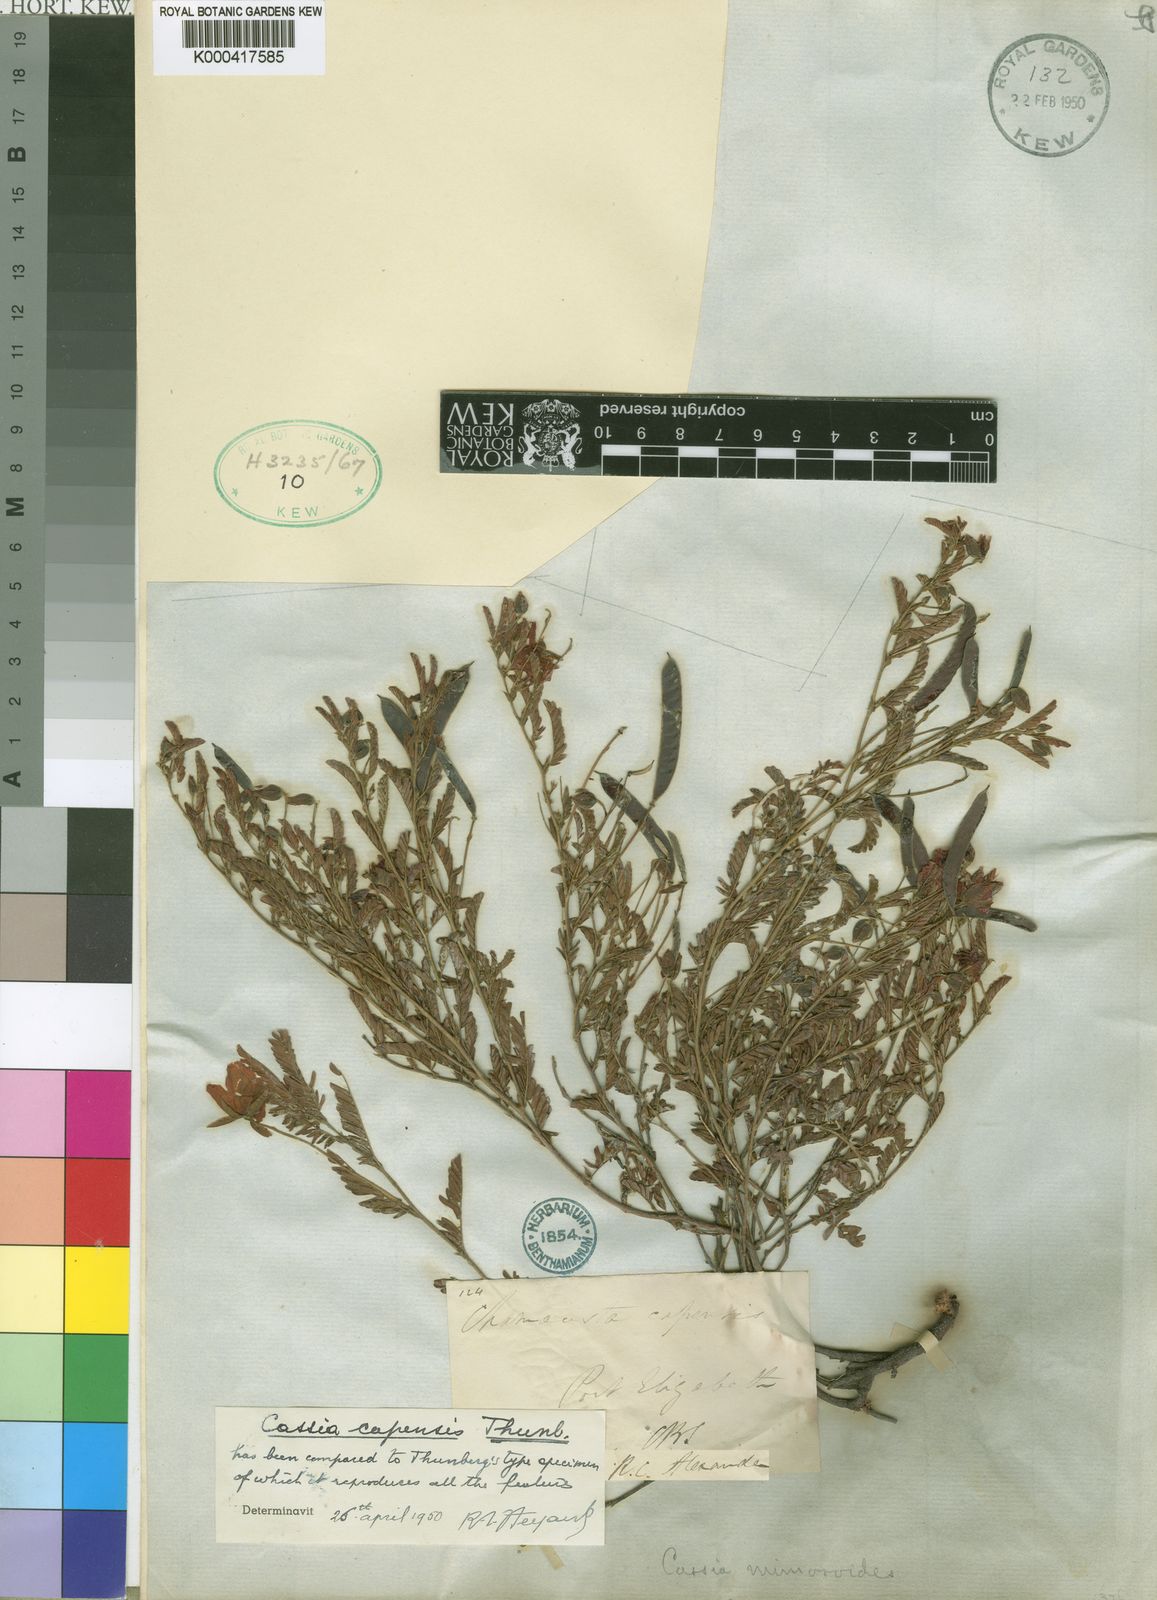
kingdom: Plantae
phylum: Tracheophyta
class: Magnoliopsida
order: Fabales
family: Fabaceae
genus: Chamaecrista
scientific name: Chamaecrista capensis
